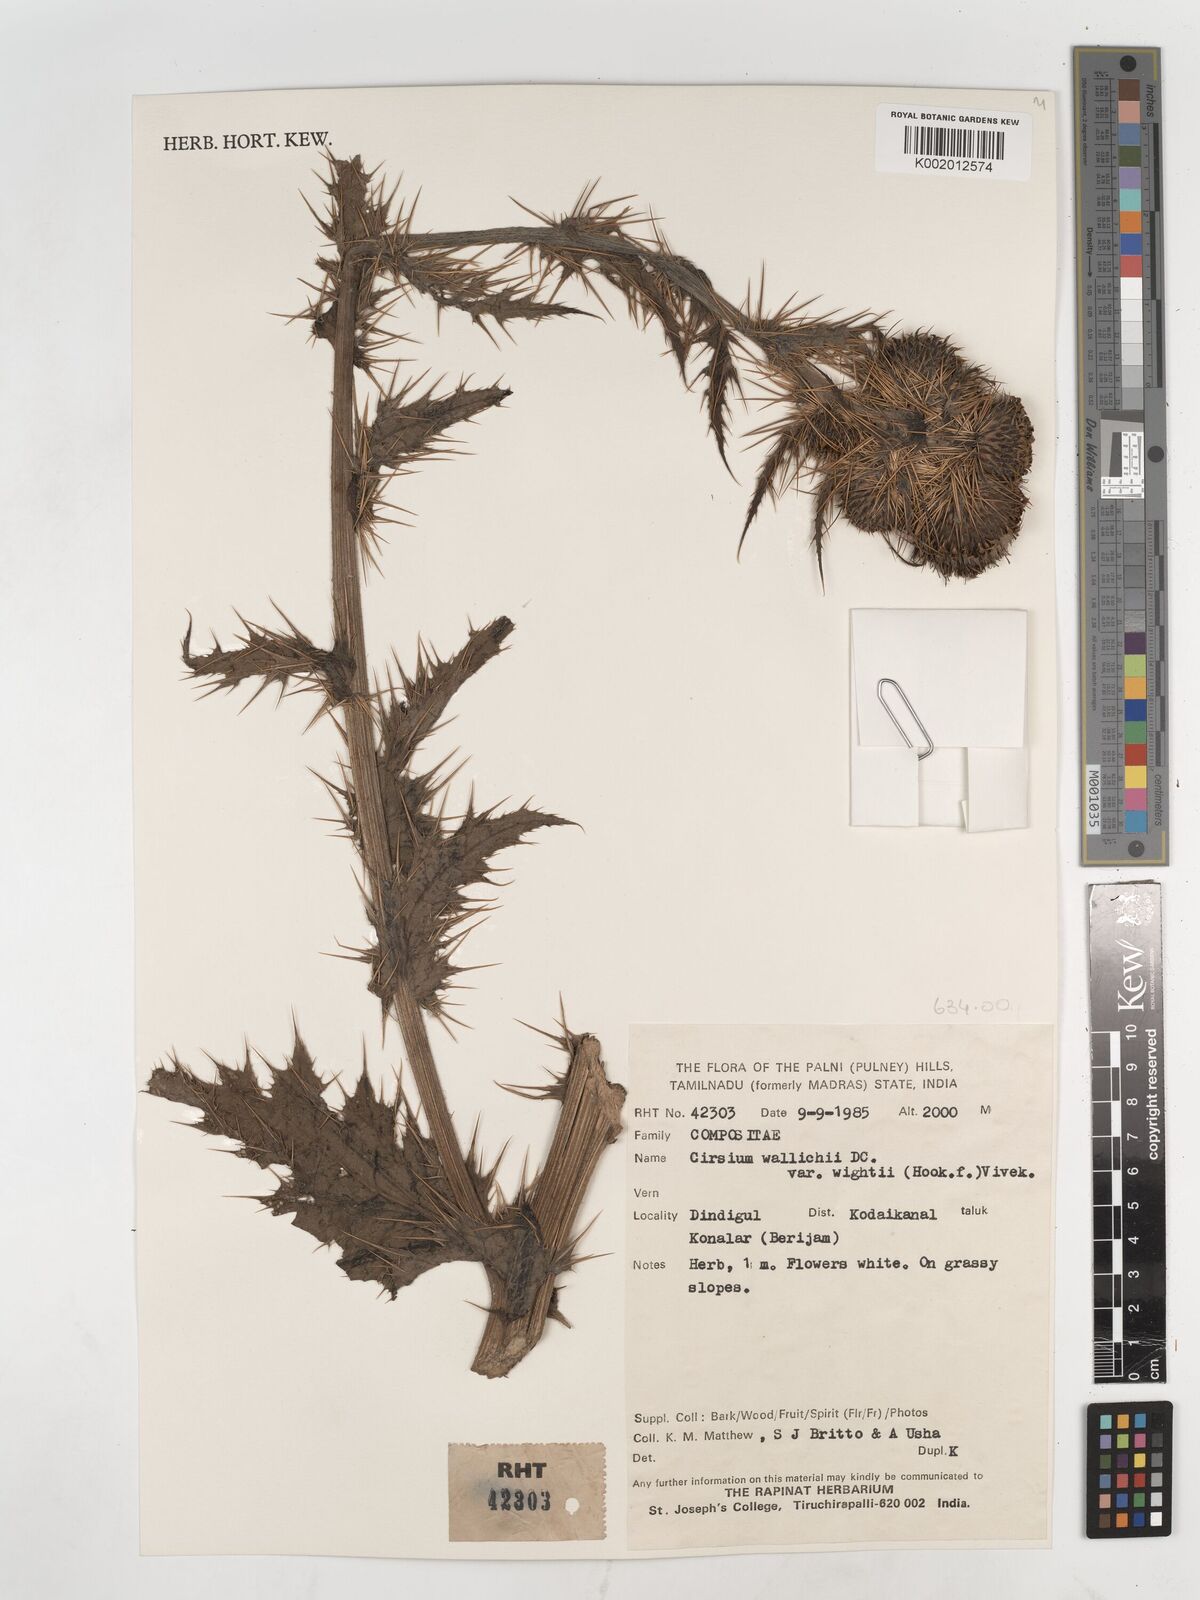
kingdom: Plantae
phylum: Tracheophyta
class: Magnoliopsida
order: Asterales
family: Asteraceae
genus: Cirsium
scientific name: Cirsium wallichii
